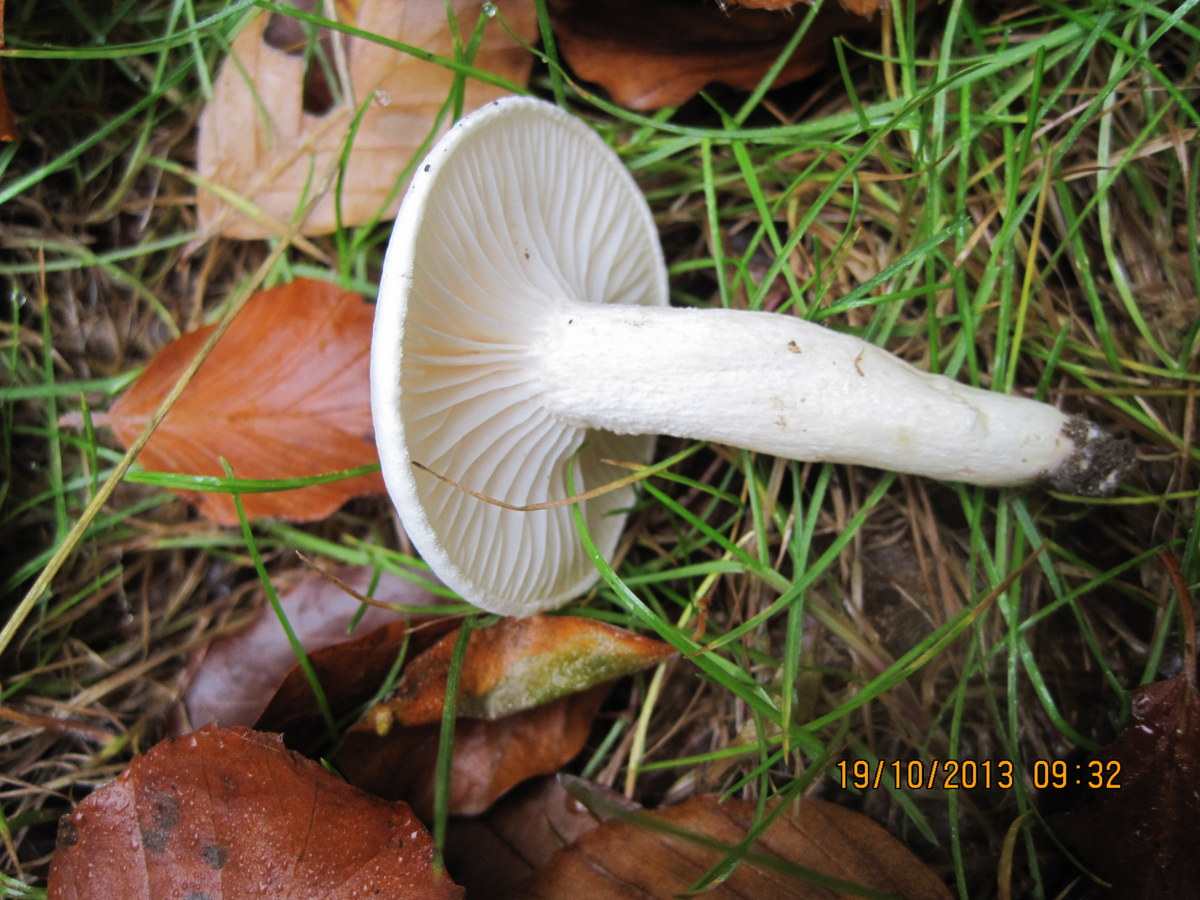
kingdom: Fungi
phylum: Basidiomycota
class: Agaricomycetes
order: Agaricales
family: Hygrophoraceae
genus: Hygrophorus
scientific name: Hygrophorus eburneus
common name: elfenbens-sneglehat
